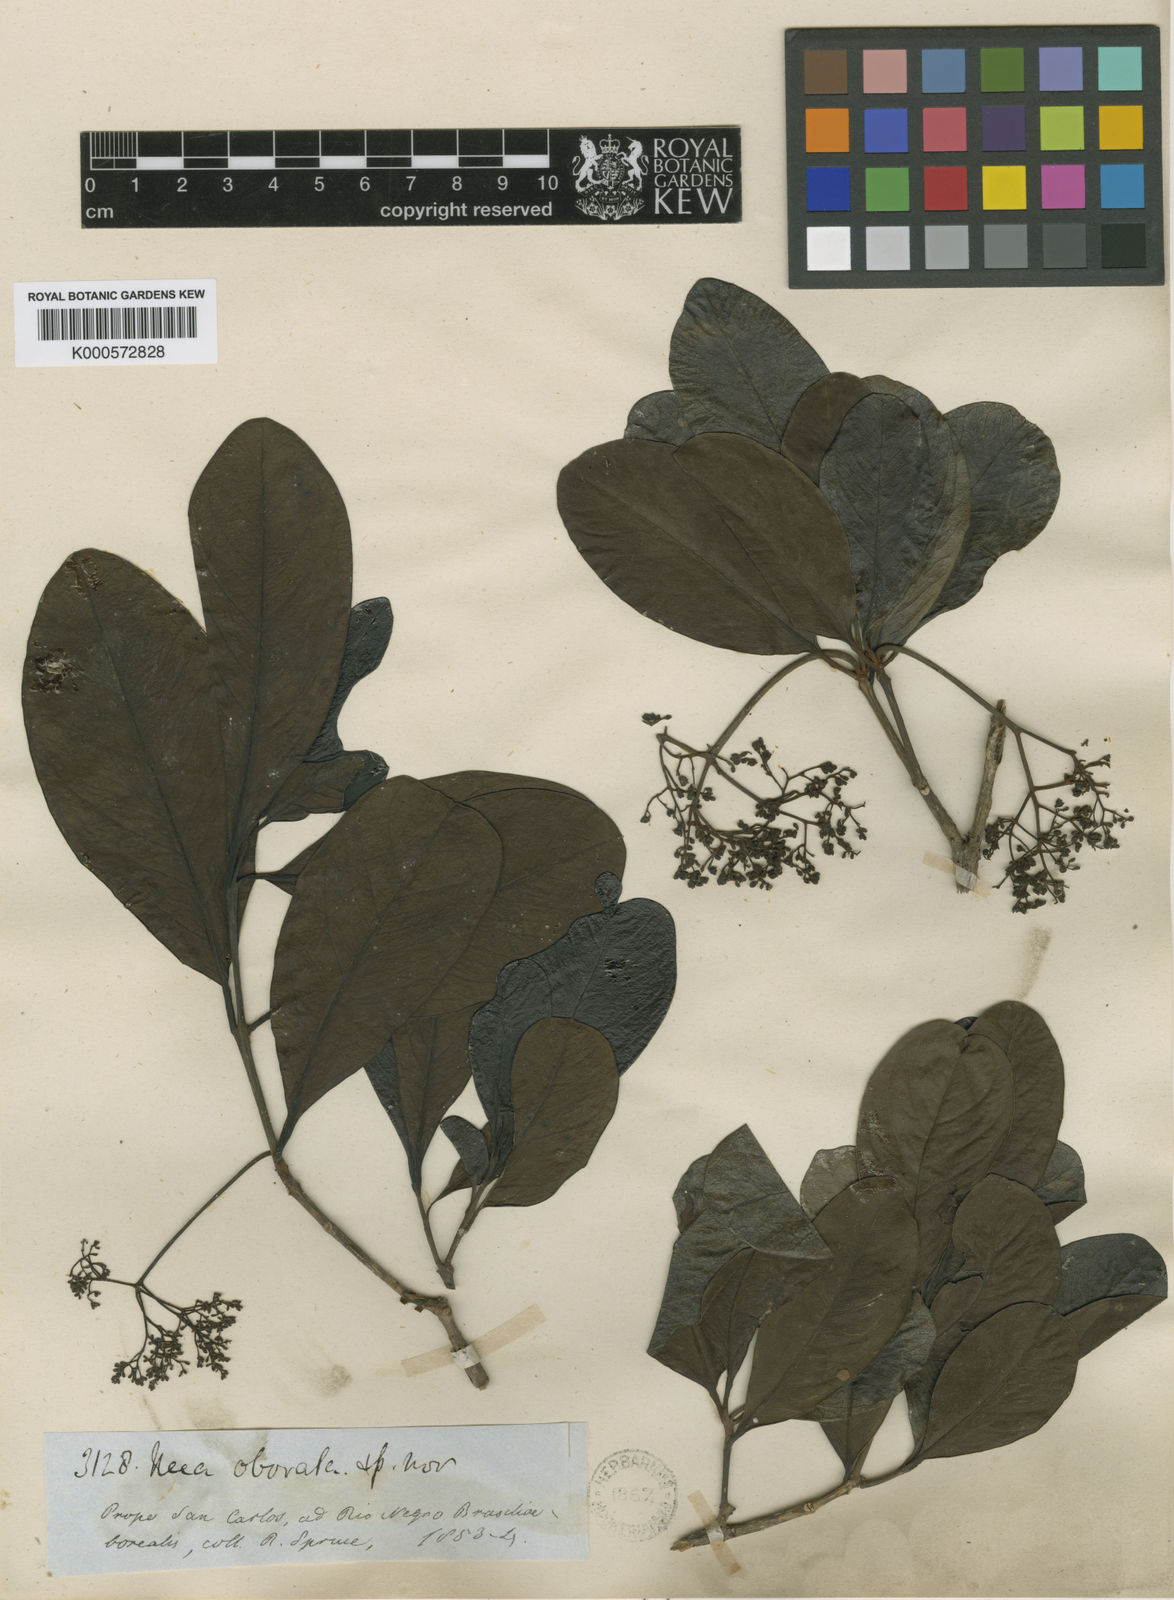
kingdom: Plantae
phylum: Tracheophyta
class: Magnoliopsida
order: Caryophyllales
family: Nyctaginaceae
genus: Neea
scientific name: Neea obovata
